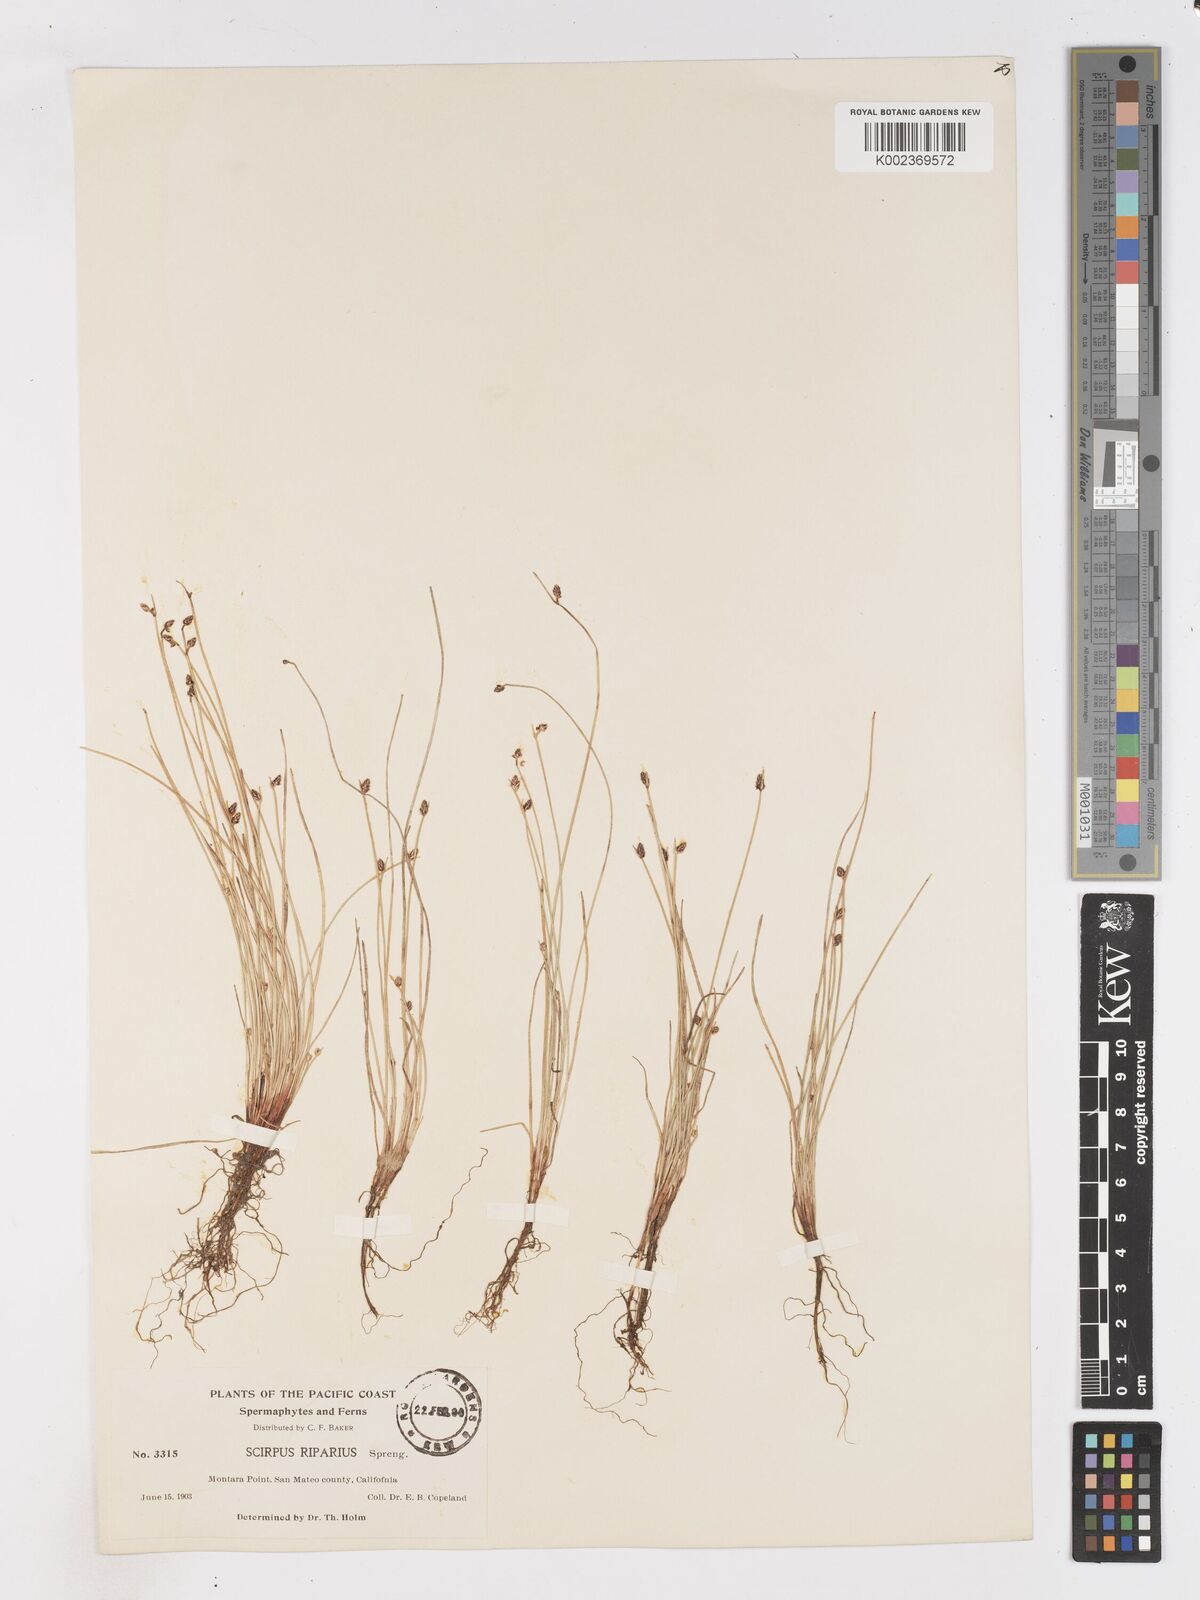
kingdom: Plantae
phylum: Tracheophyta
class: Liliopsida
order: Poales
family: Cyperaceae
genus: Isolepis
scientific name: Isolepis cernua
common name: Slender club-rush
